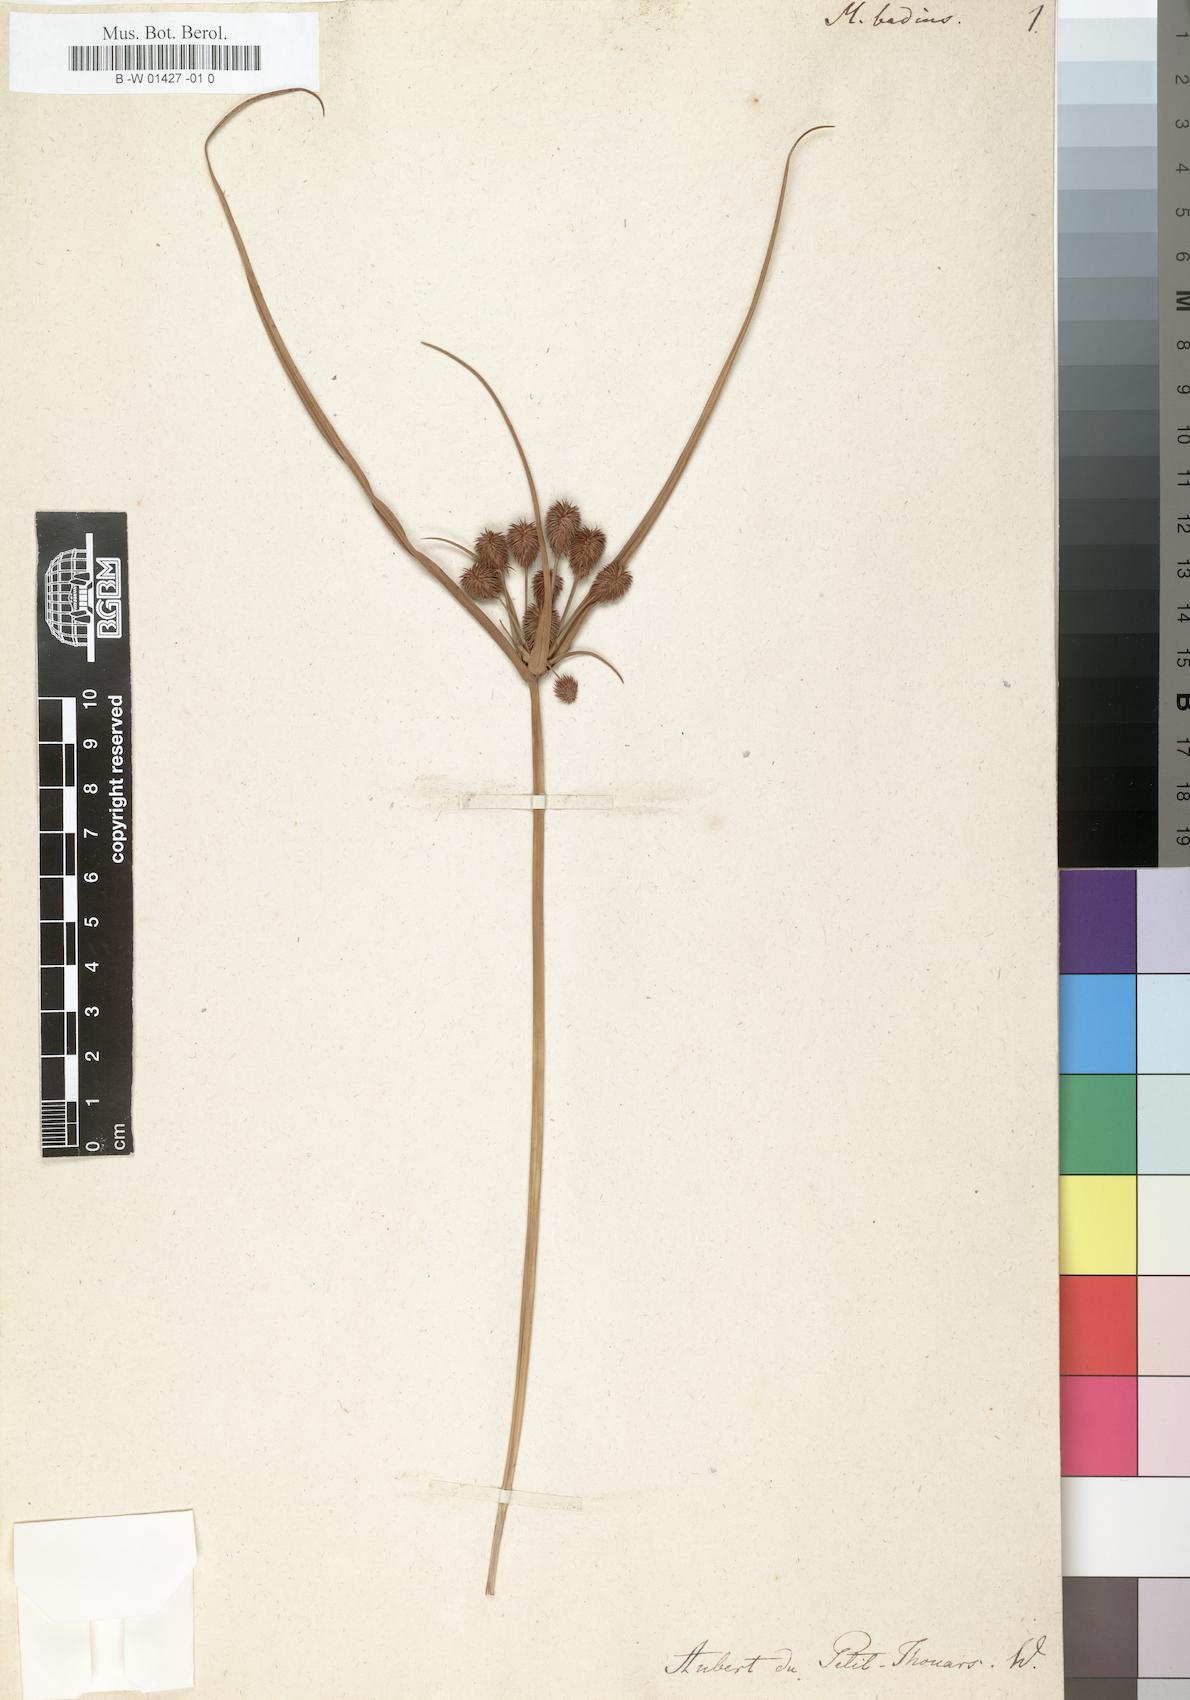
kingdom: Plantae
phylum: Tracheophyta
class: Liliopsida
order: Poales
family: Cyperaceae
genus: Cyperus
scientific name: Cyperus subbadius
